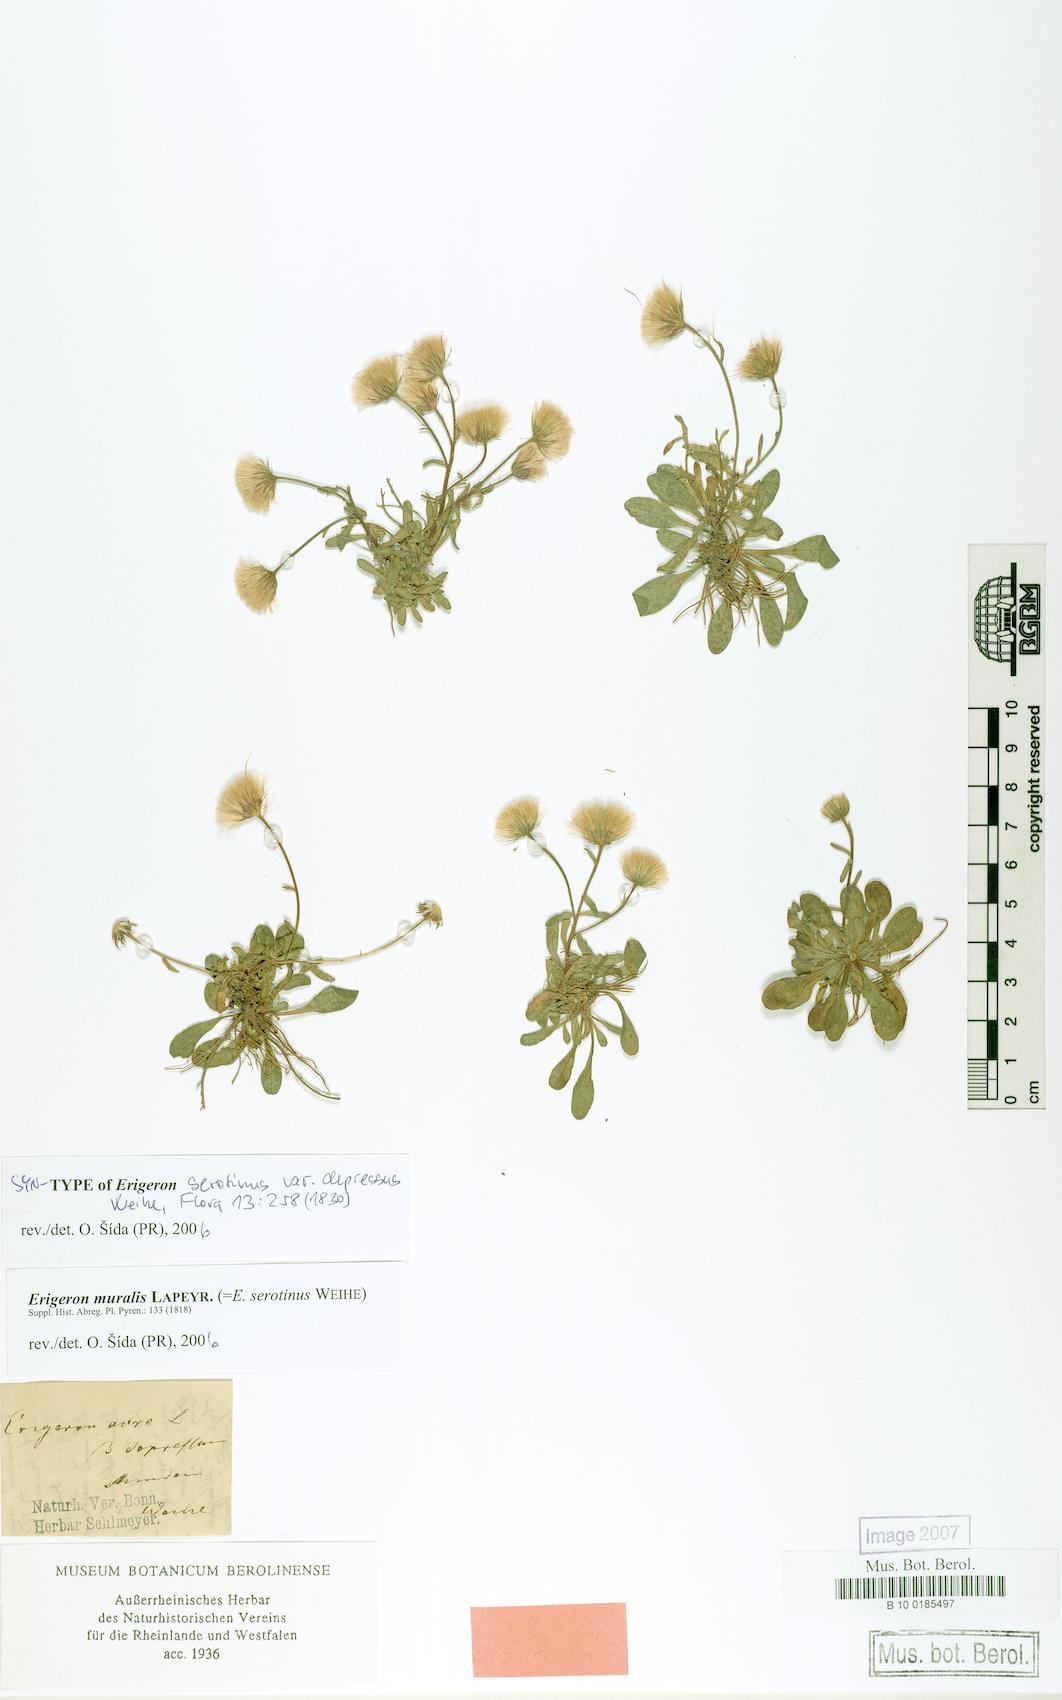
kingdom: Plantae
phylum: Tracheophyta
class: Magnoliopsida
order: Asterales
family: Asteraceae
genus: Erigeron
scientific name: Erigeron muralis
